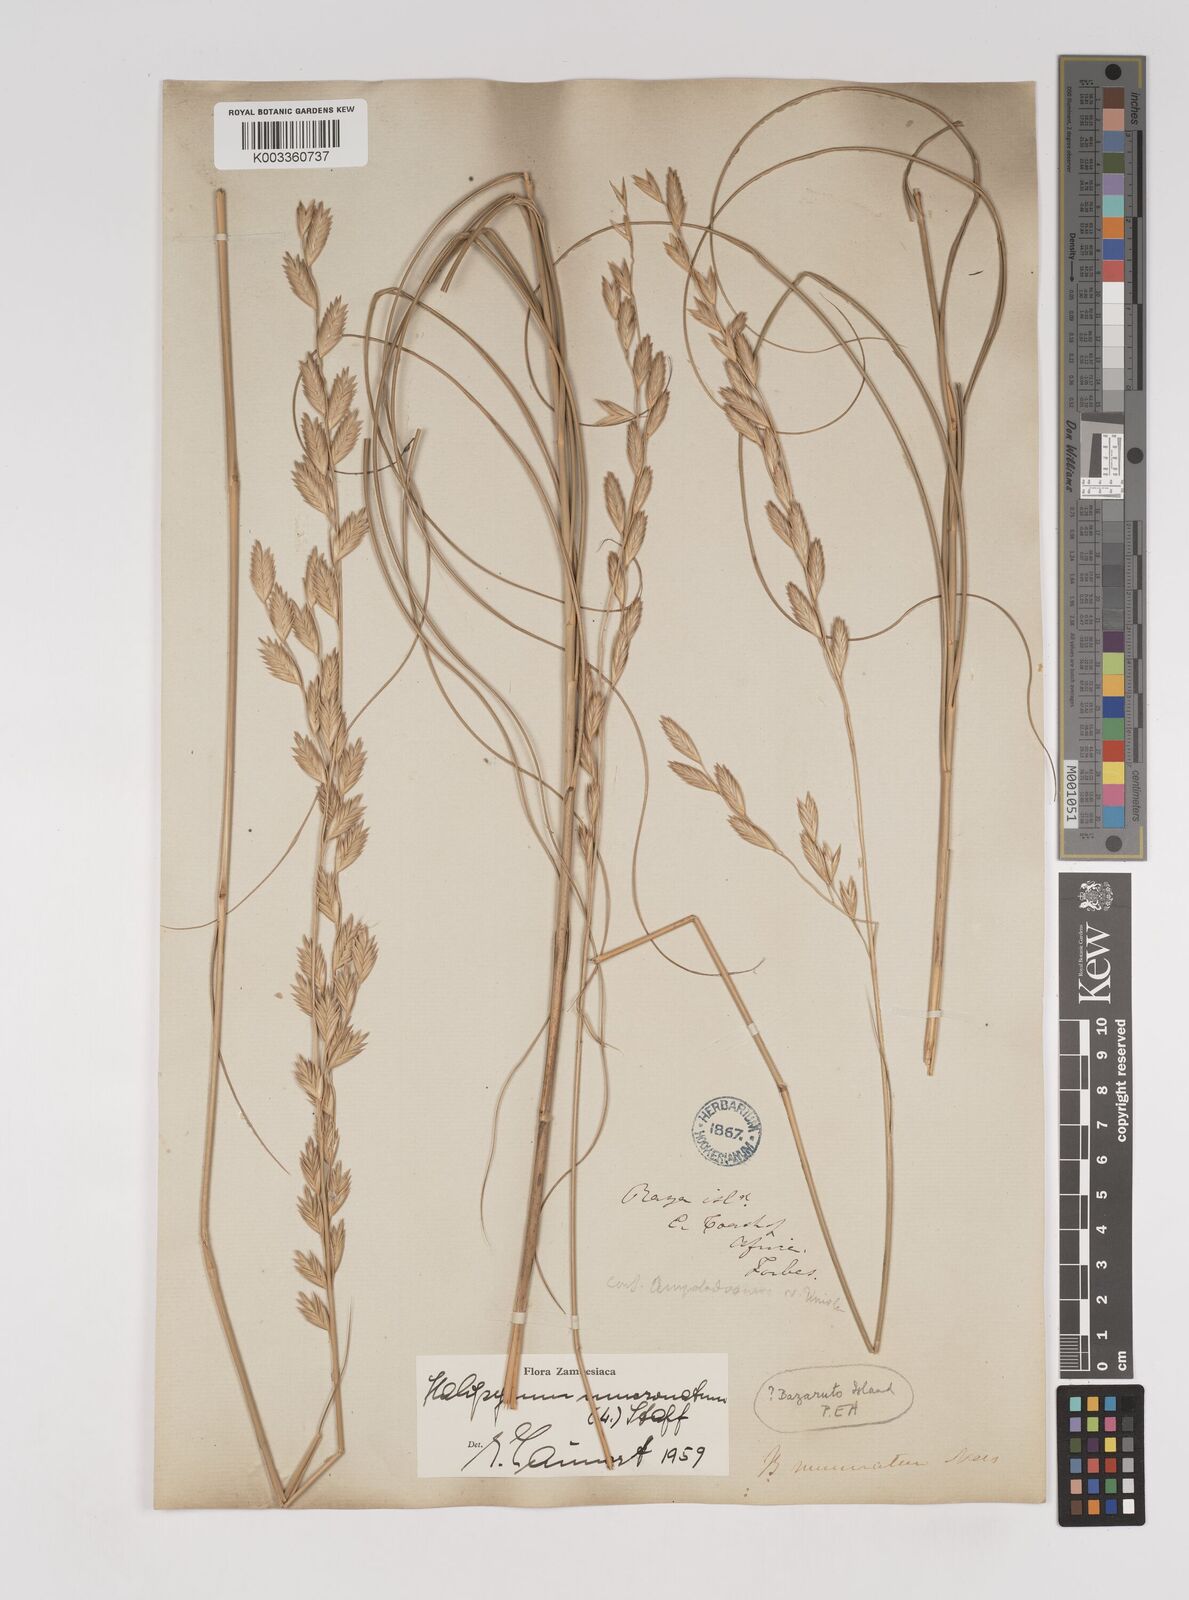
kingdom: Plantae
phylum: Tracheophyta
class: Liliopsida
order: Poales
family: Poaceae
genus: Halopyrum
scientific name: Halopyrum mucronatum
